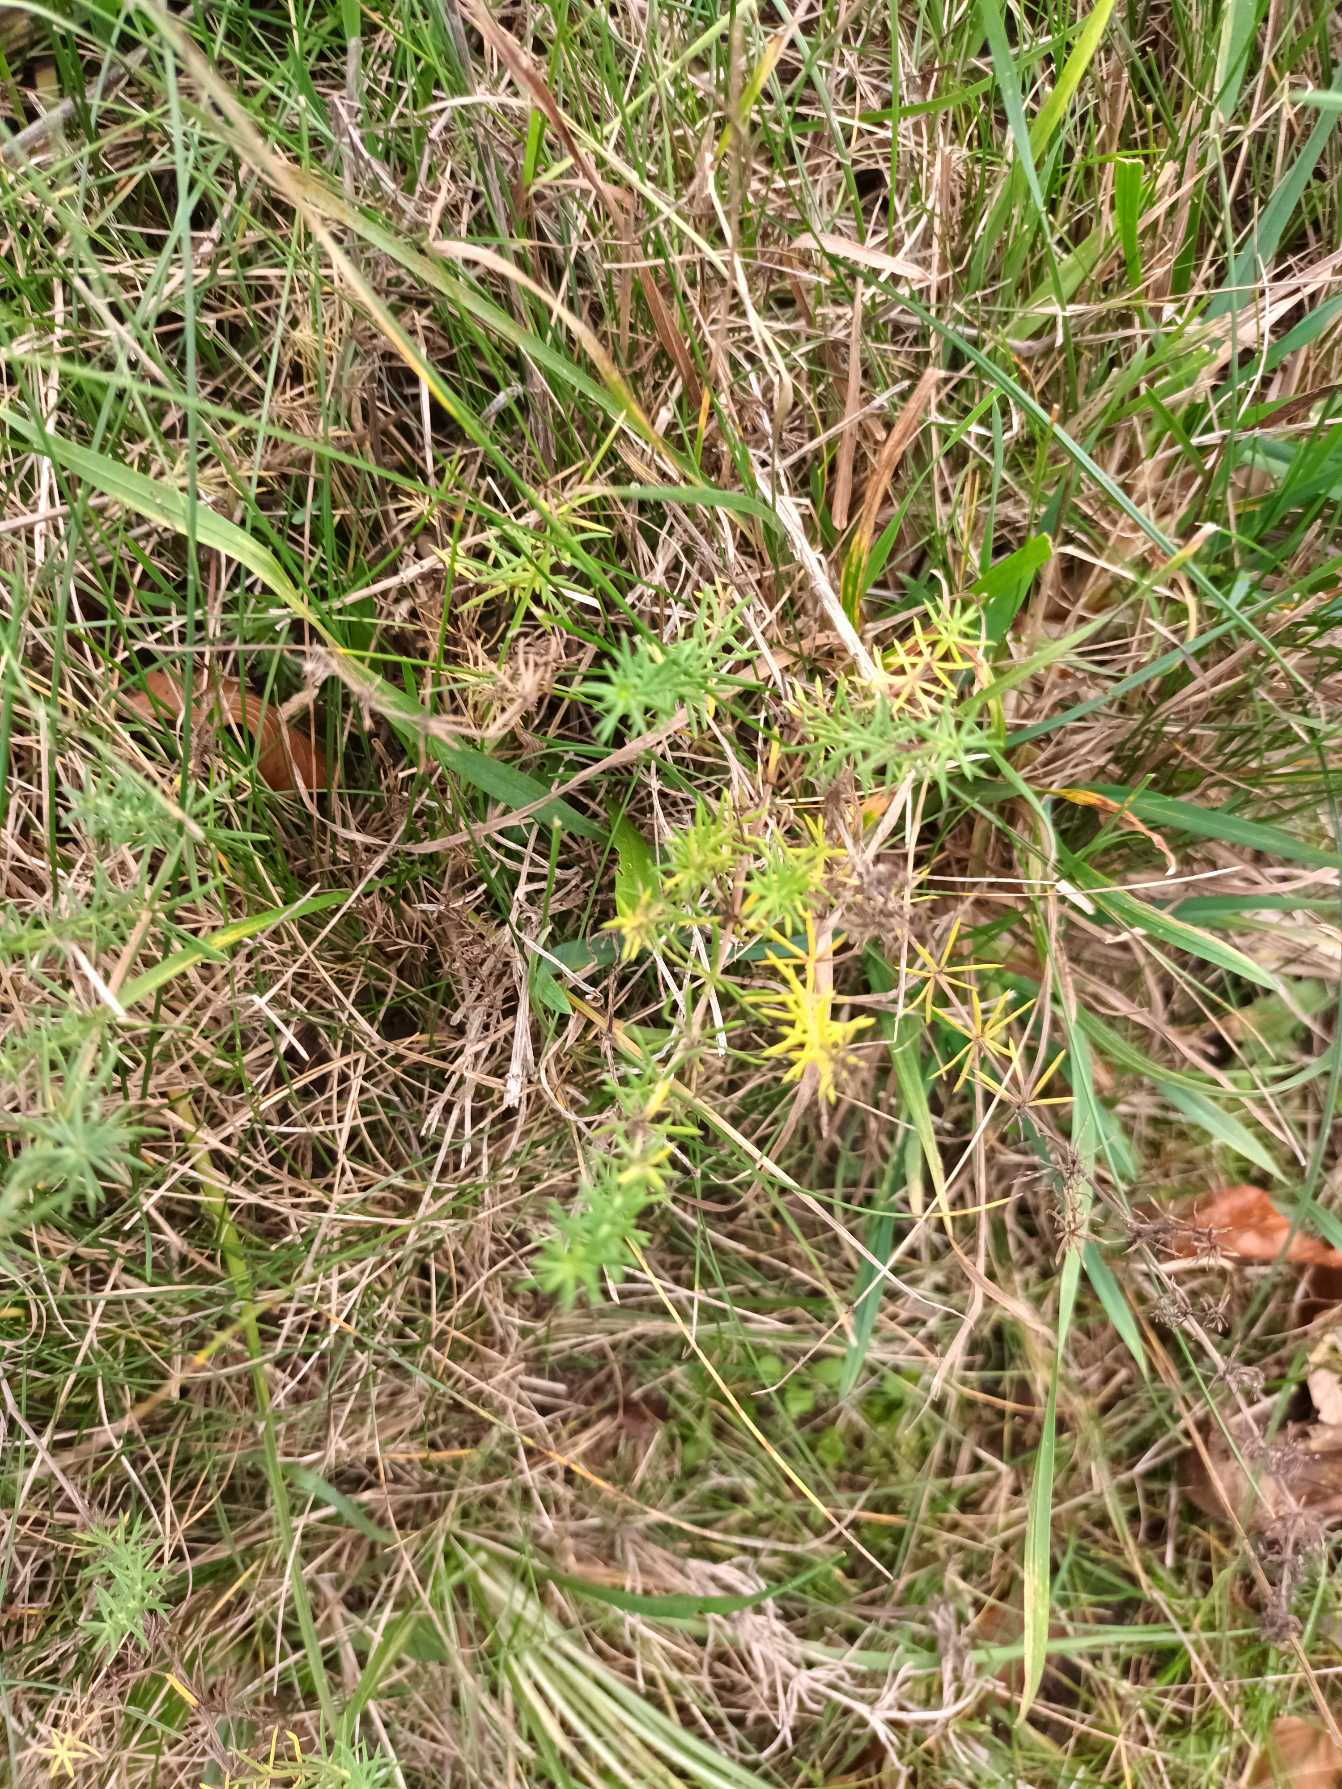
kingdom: Plantae
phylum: Tracheophyta
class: Magnoliopsida
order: Gentianales
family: Rubiaceae
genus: Galium
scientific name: Galium verum
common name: Gul snerre
